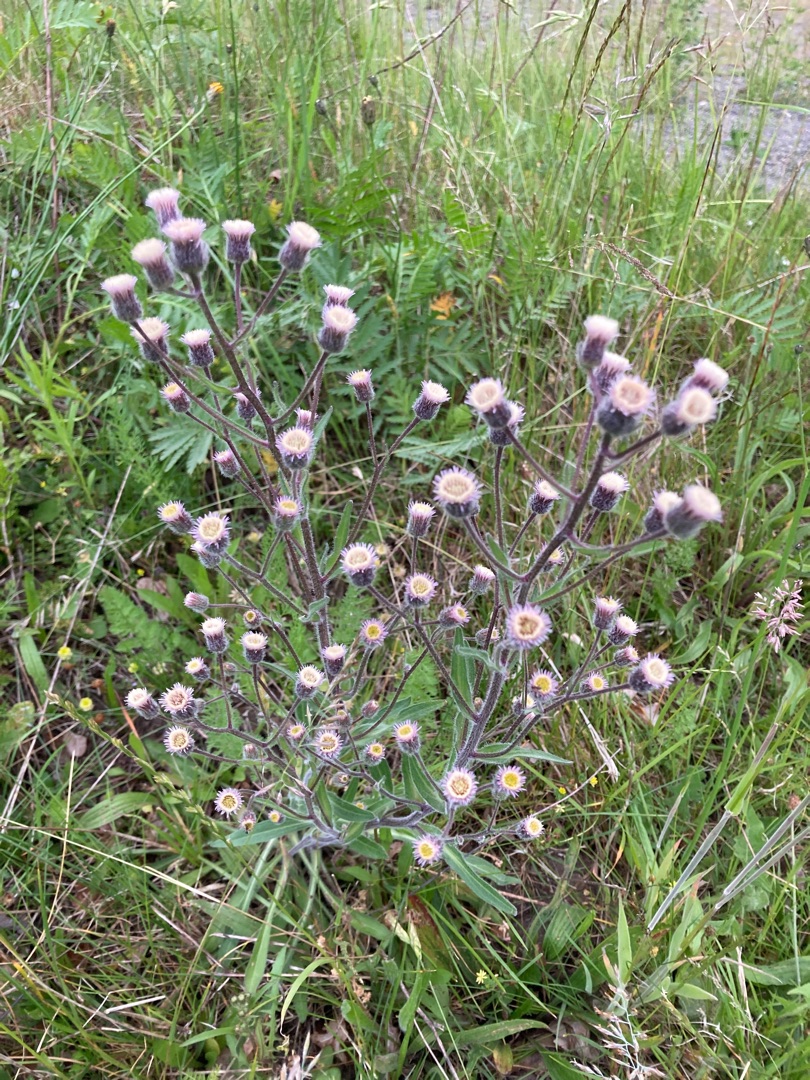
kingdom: Plantae
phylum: Tracheophyta
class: Magnoliopsida
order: Asterales
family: Asteraceae
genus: Erigeron
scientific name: Erigeron acris
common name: Bitter bakkestjerne
